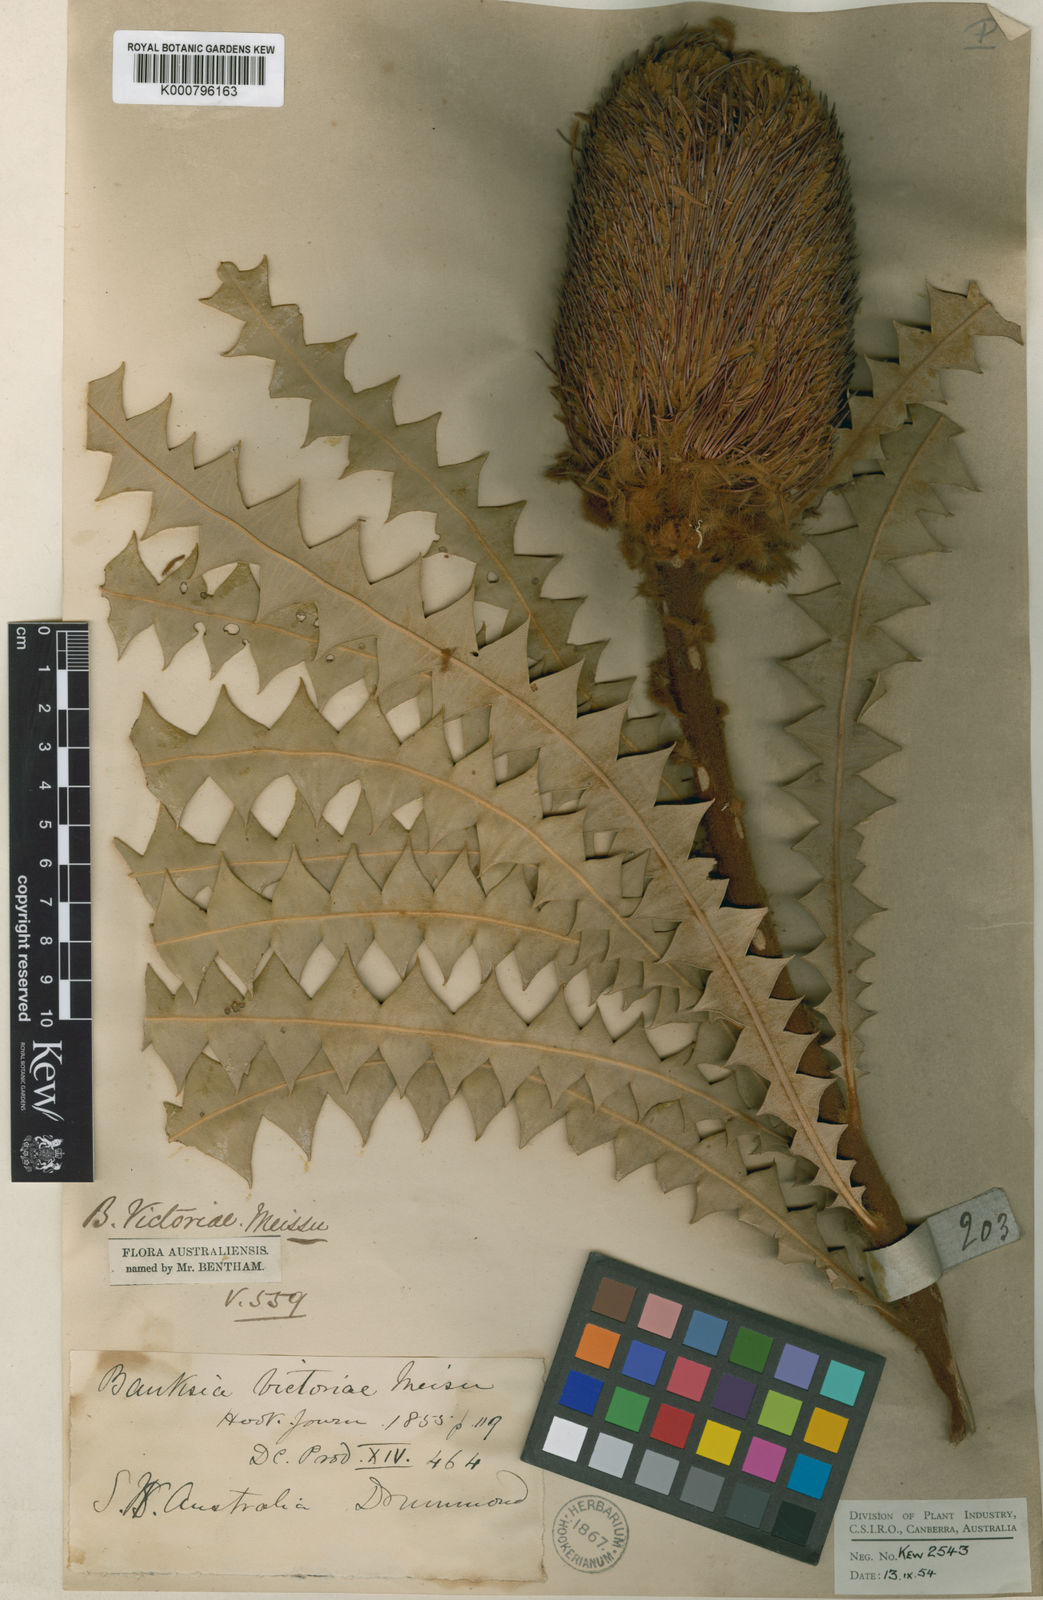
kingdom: Plantae
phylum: Tracheophyta
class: Magnoliopsida
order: Proteales
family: Proteaceae
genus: Banksia
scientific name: Banksia victoriae
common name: Woolly orange banksia
